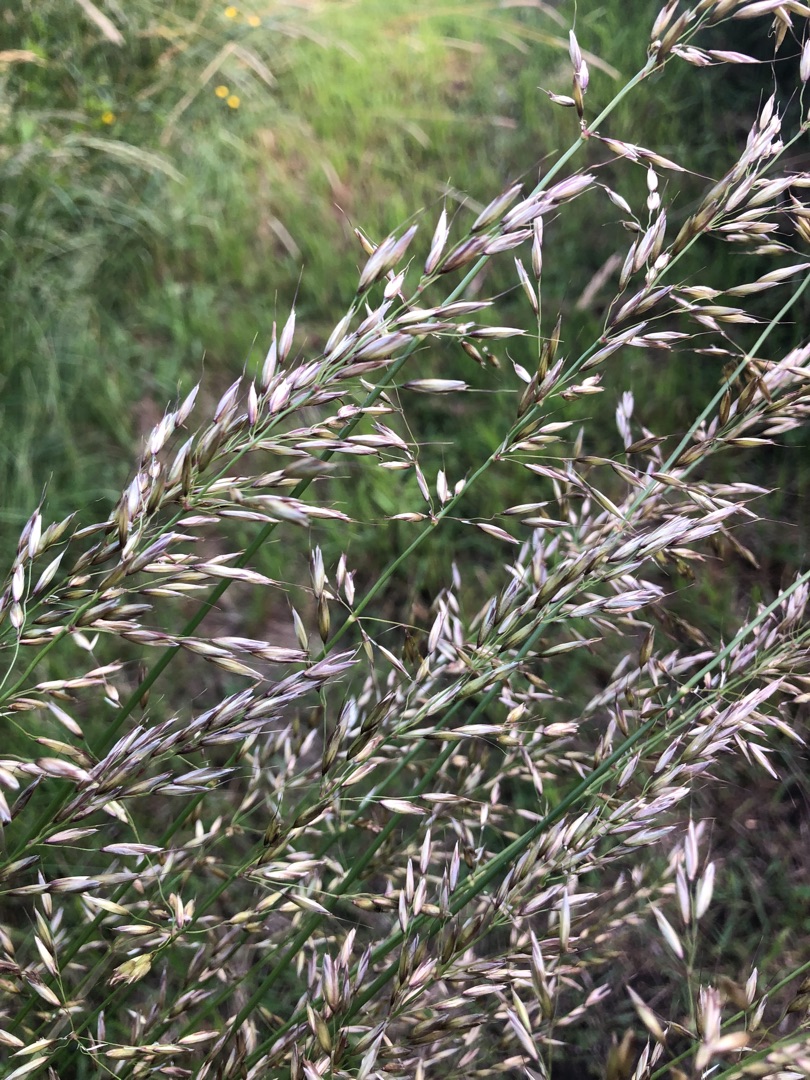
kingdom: Plantae
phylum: Tracheophyta
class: Liliopsida
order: Poales
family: Poaceae
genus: Arrhenatherum
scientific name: Arrhenatherum elatius
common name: Draphavre
